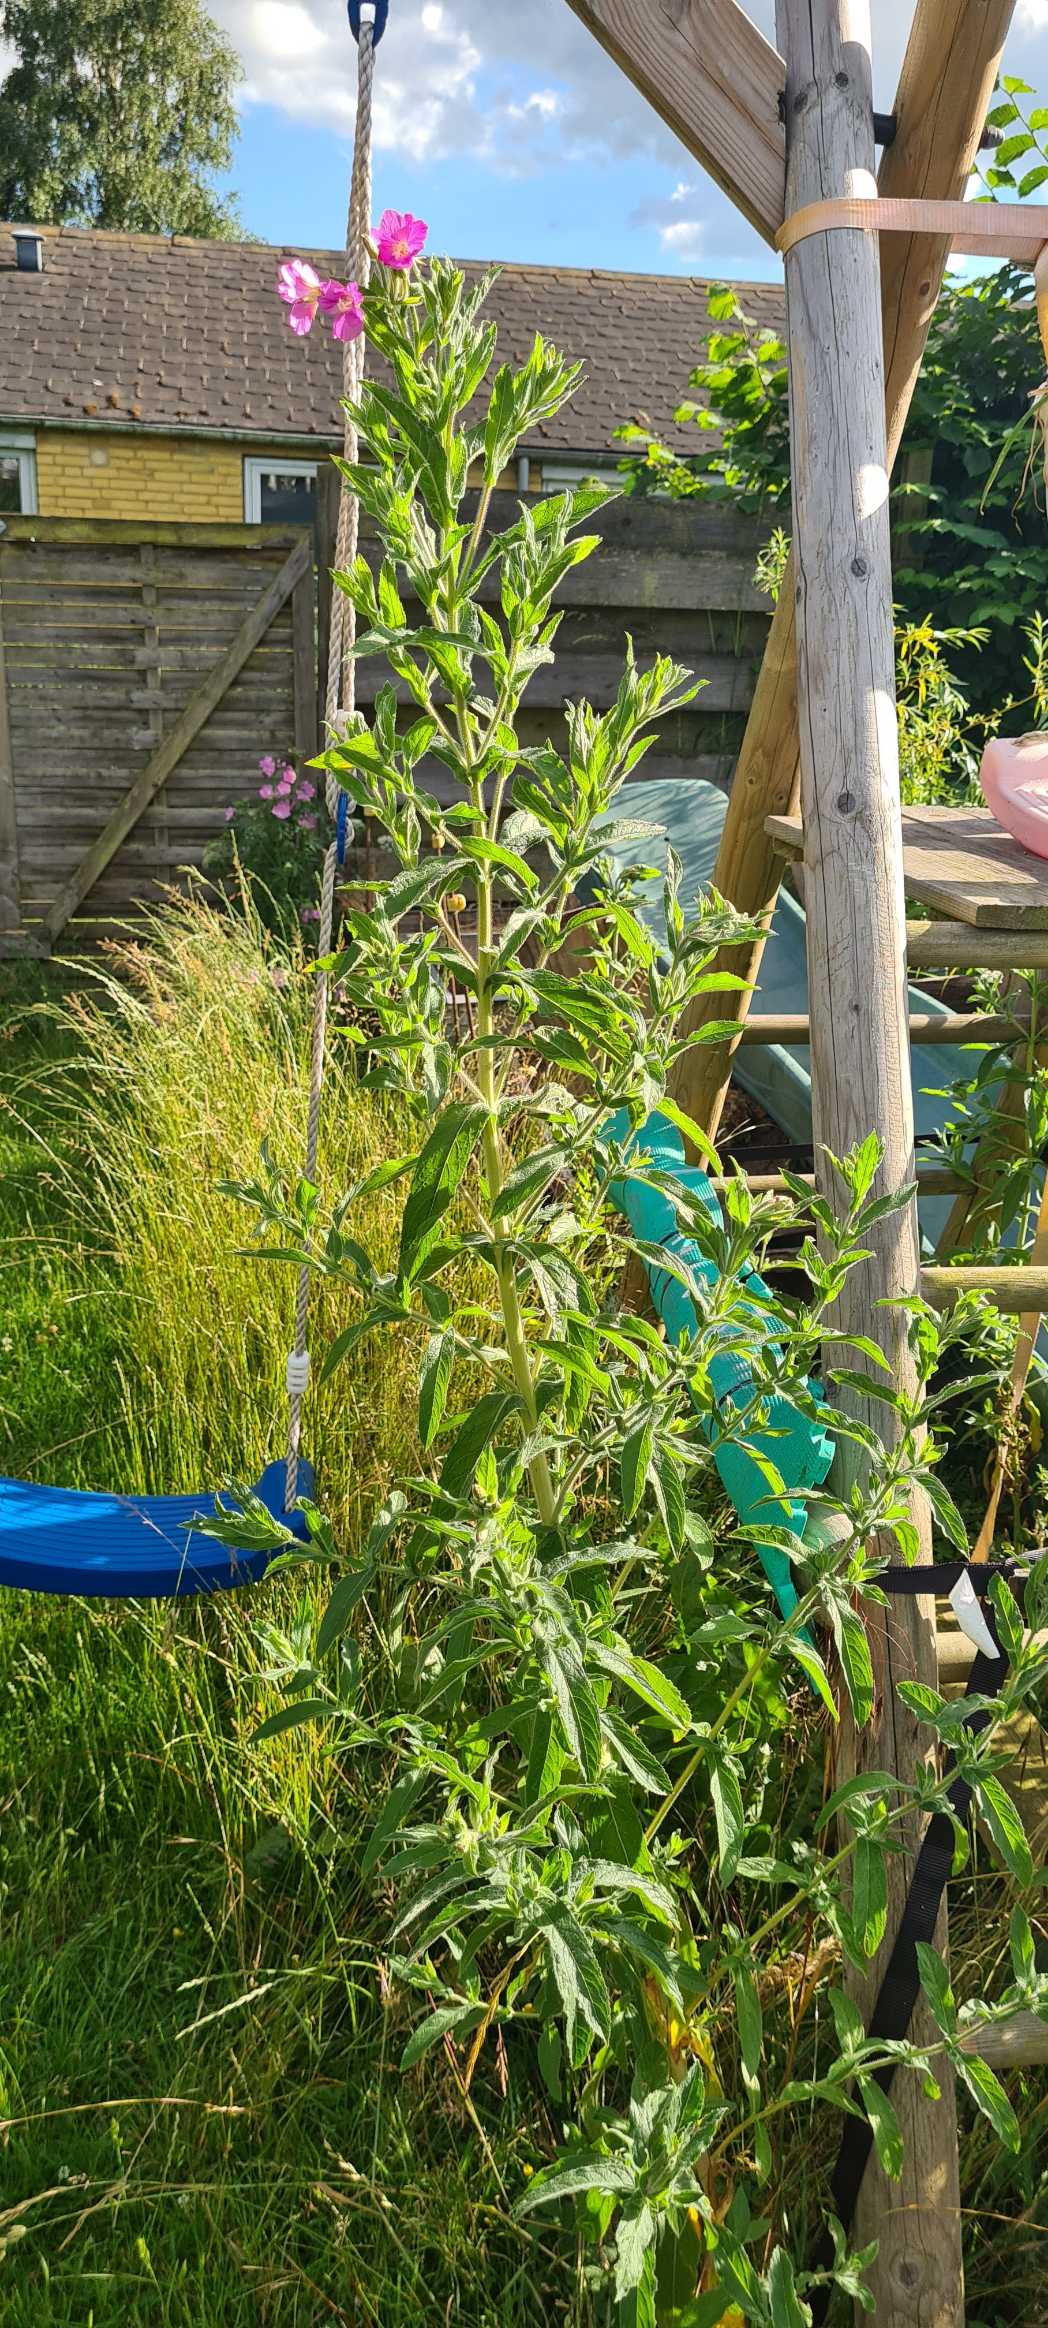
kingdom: Plantae
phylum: Tracheophyta
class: Magnoliopsida
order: Myrtales
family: Onagraceae
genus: Epilobium
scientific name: Epilobium hirsutum
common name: Lådden dueurt
